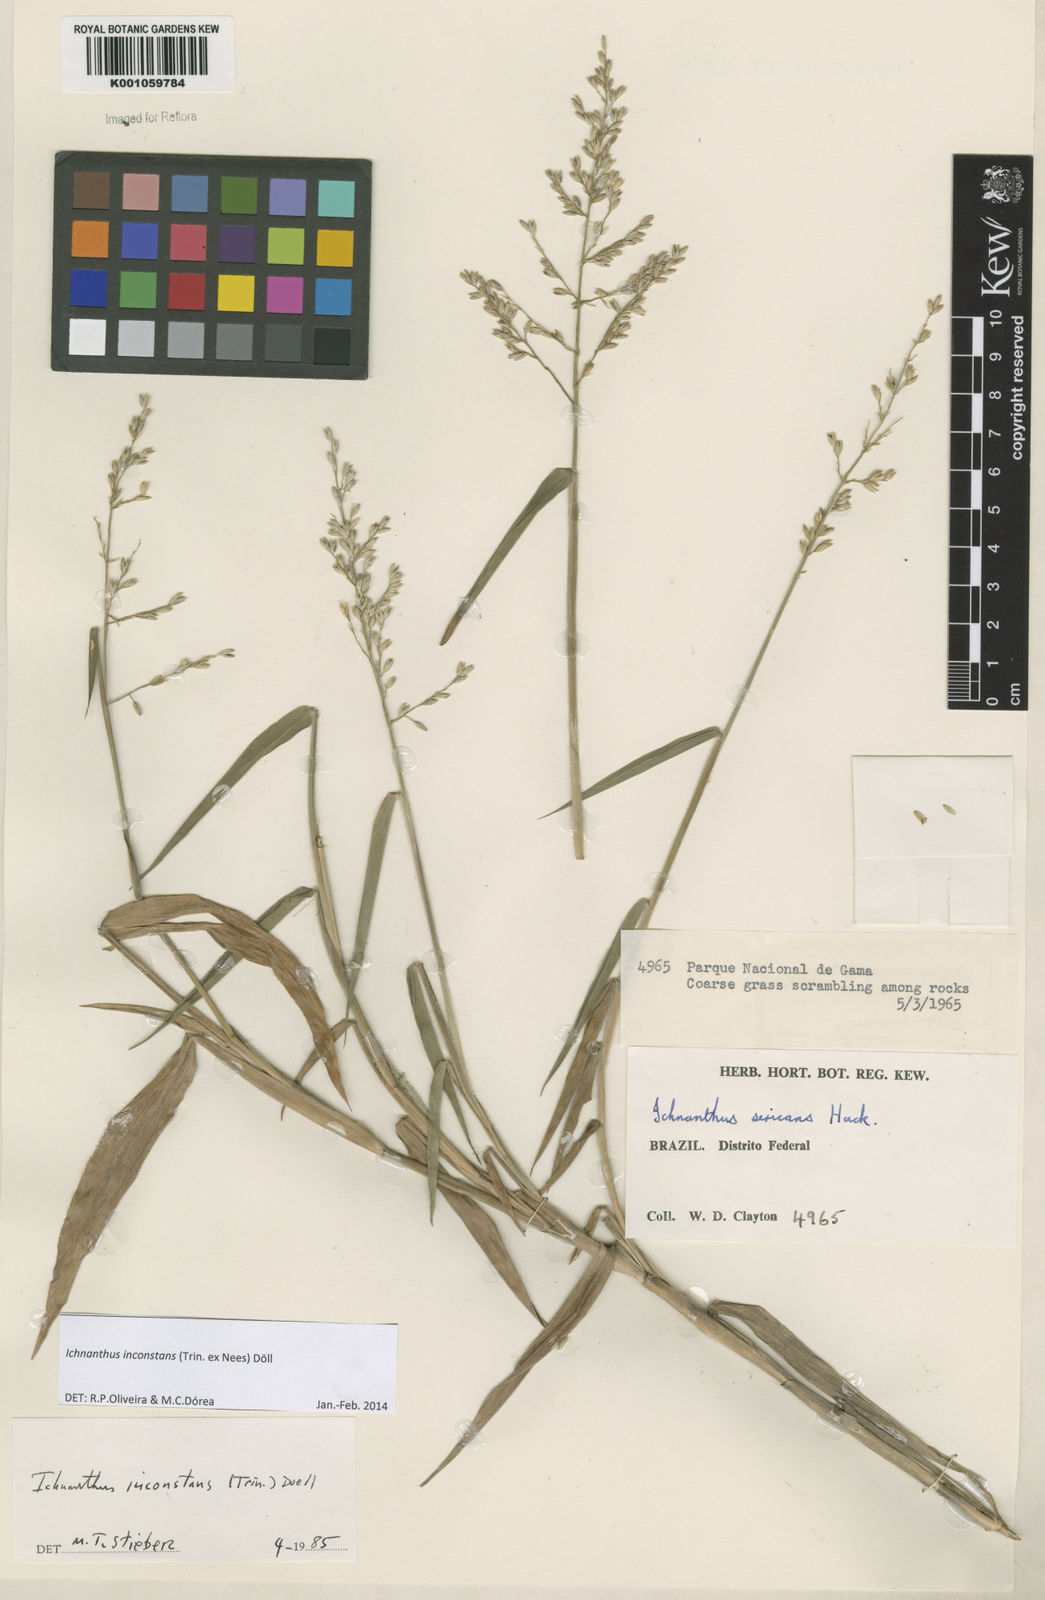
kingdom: Plantae
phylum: Tracheophyta
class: Liliopsida
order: Poales
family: Poaceae
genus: Ichnanthus
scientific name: Ichnanthus
